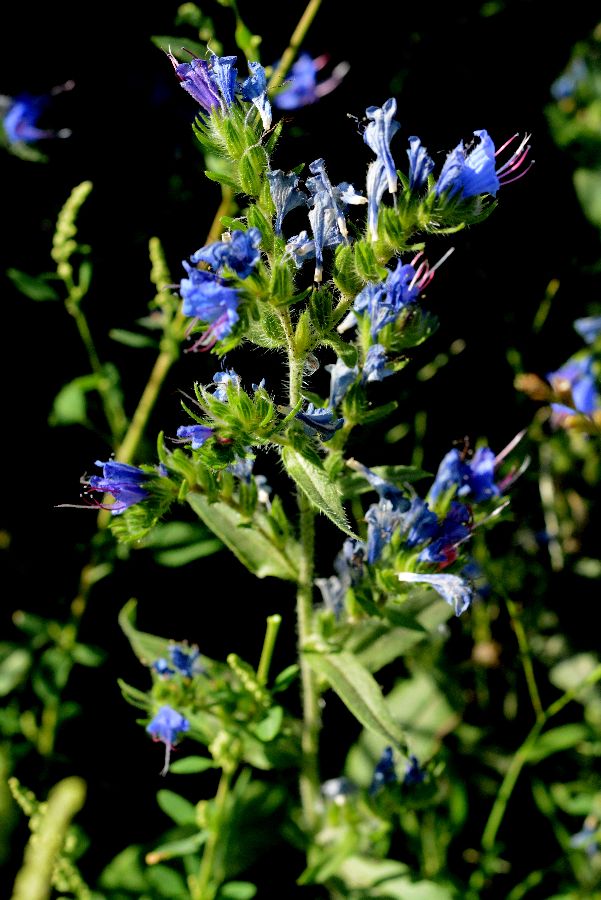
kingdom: Plantae
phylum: Tracheophyta
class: Magnoliopsida
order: Boraginales
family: Boraginaceae
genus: Echium
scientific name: Echium vulgare
